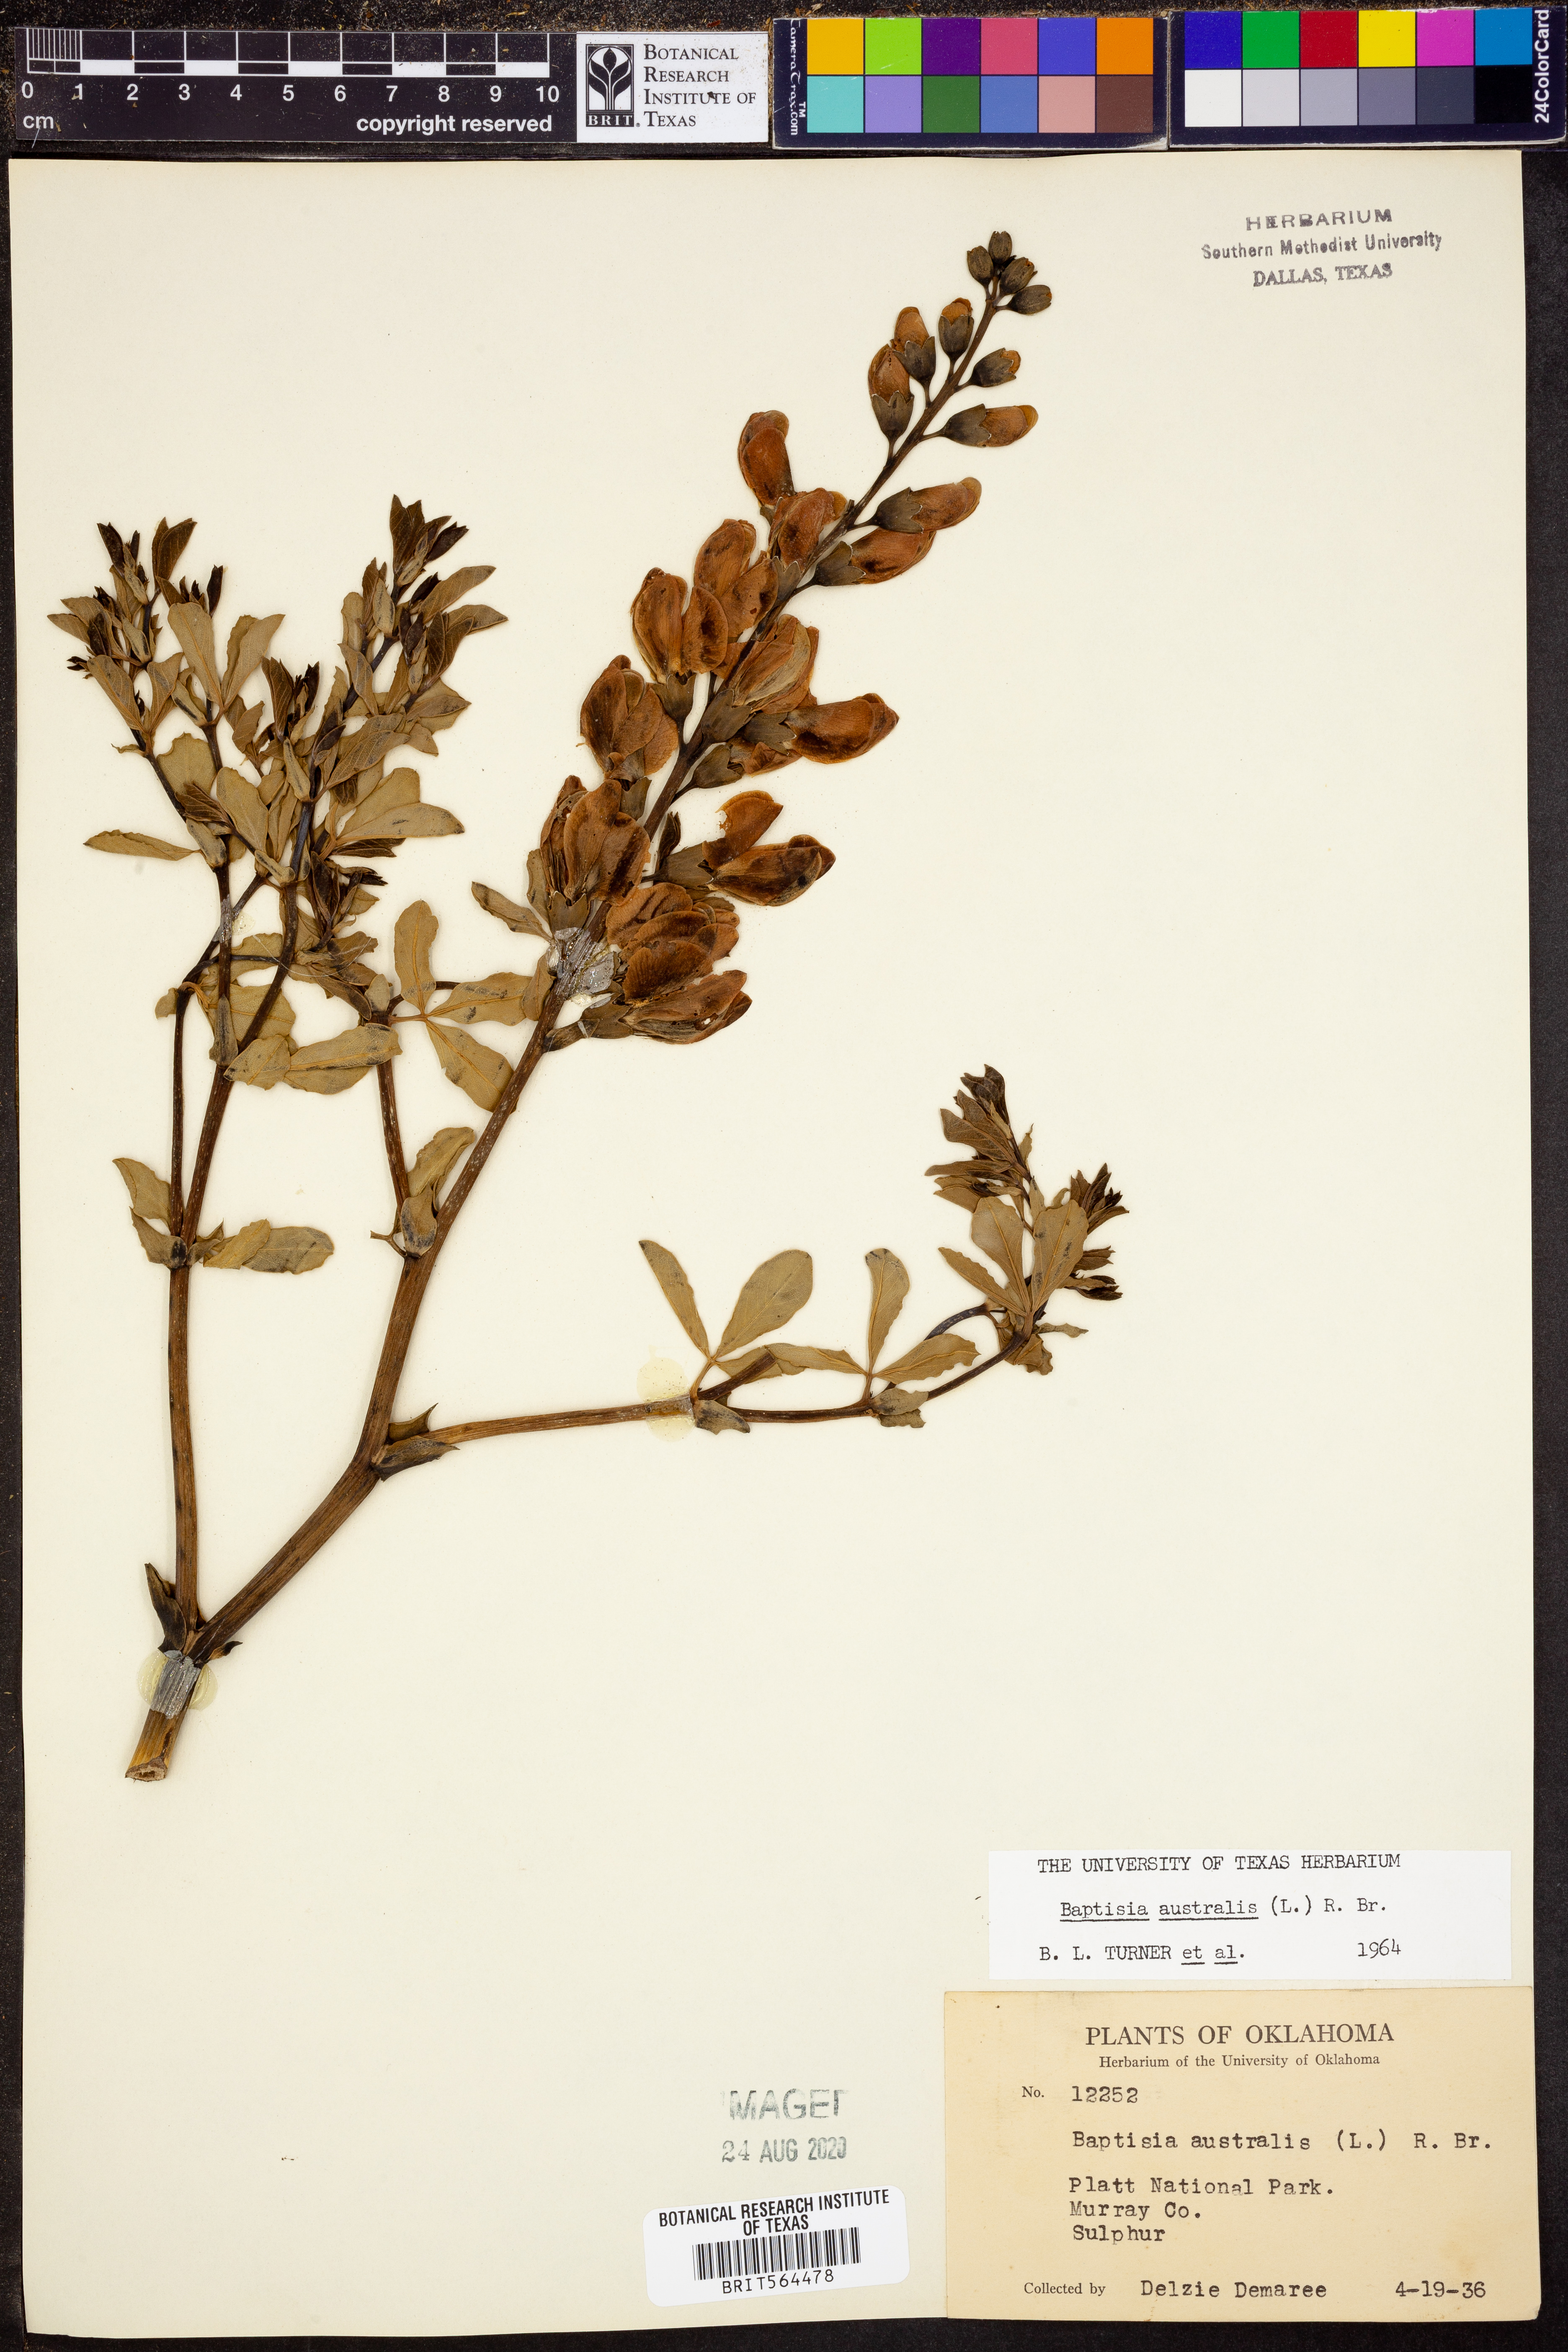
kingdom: Plantae
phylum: Tracheophyta
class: Magnoliopsida
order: Fabales
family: Fabaceae
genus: Baptisia
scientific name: Baptisia australis
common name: Blue false indigo
